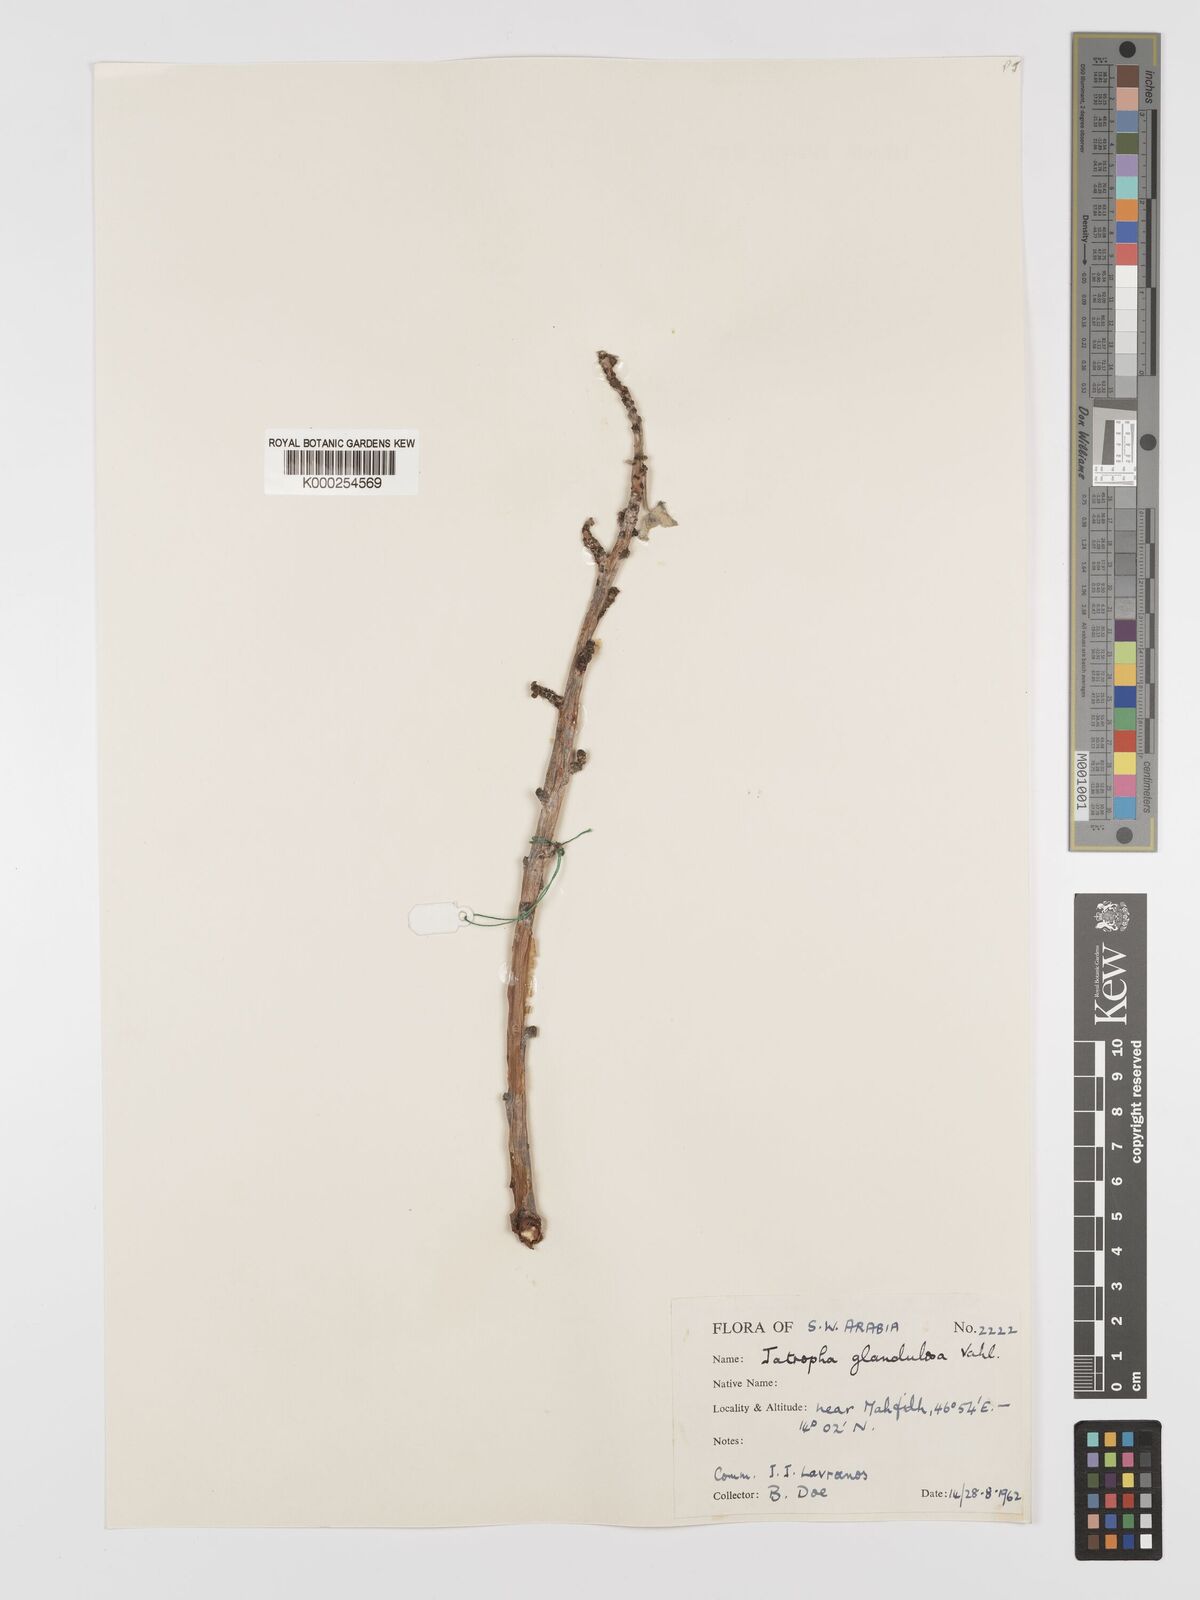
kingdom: Plantae
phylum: Tracheophyta
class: Magnoliopsida
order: Malpighiales
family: Euphorbiaceae
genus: Jatropha
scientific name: Jatropha pelargoniifolia
